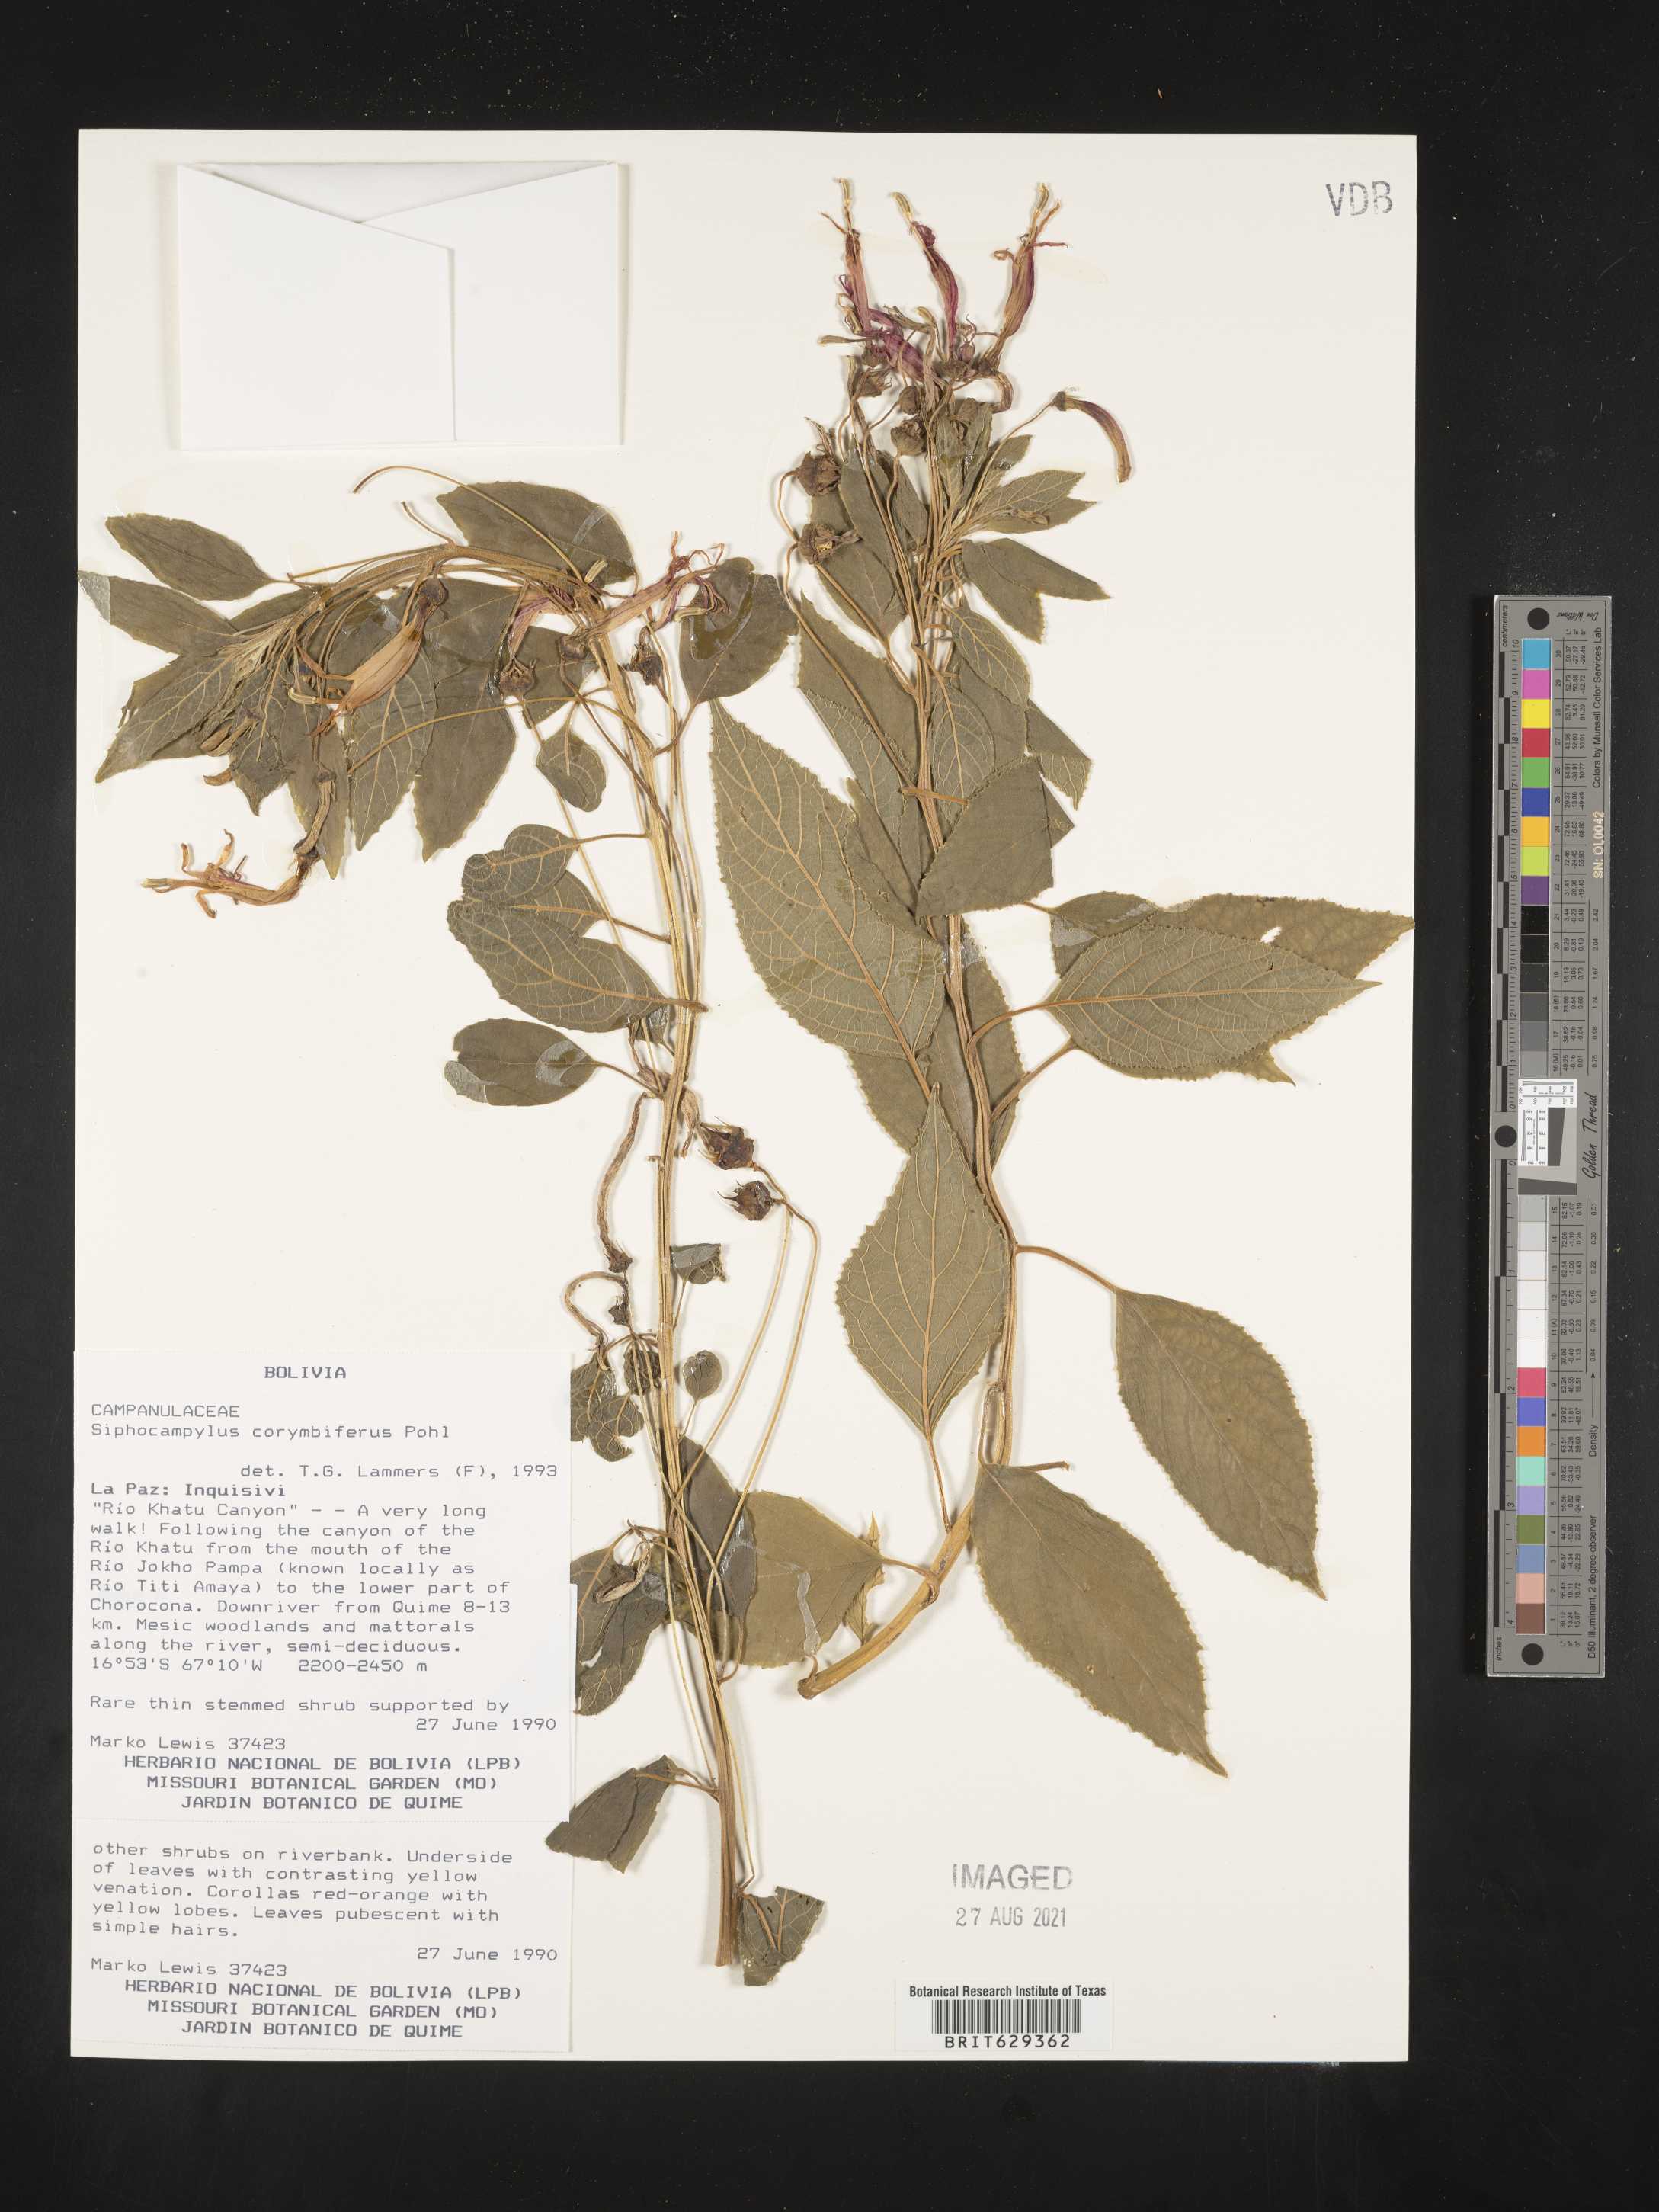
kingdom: Plantae
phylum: Tracheophyta
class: Magnoliopsida
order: Asterales
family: Campanulaceae
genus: Siphocampylus
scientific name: Siphocampylus corymbifer
